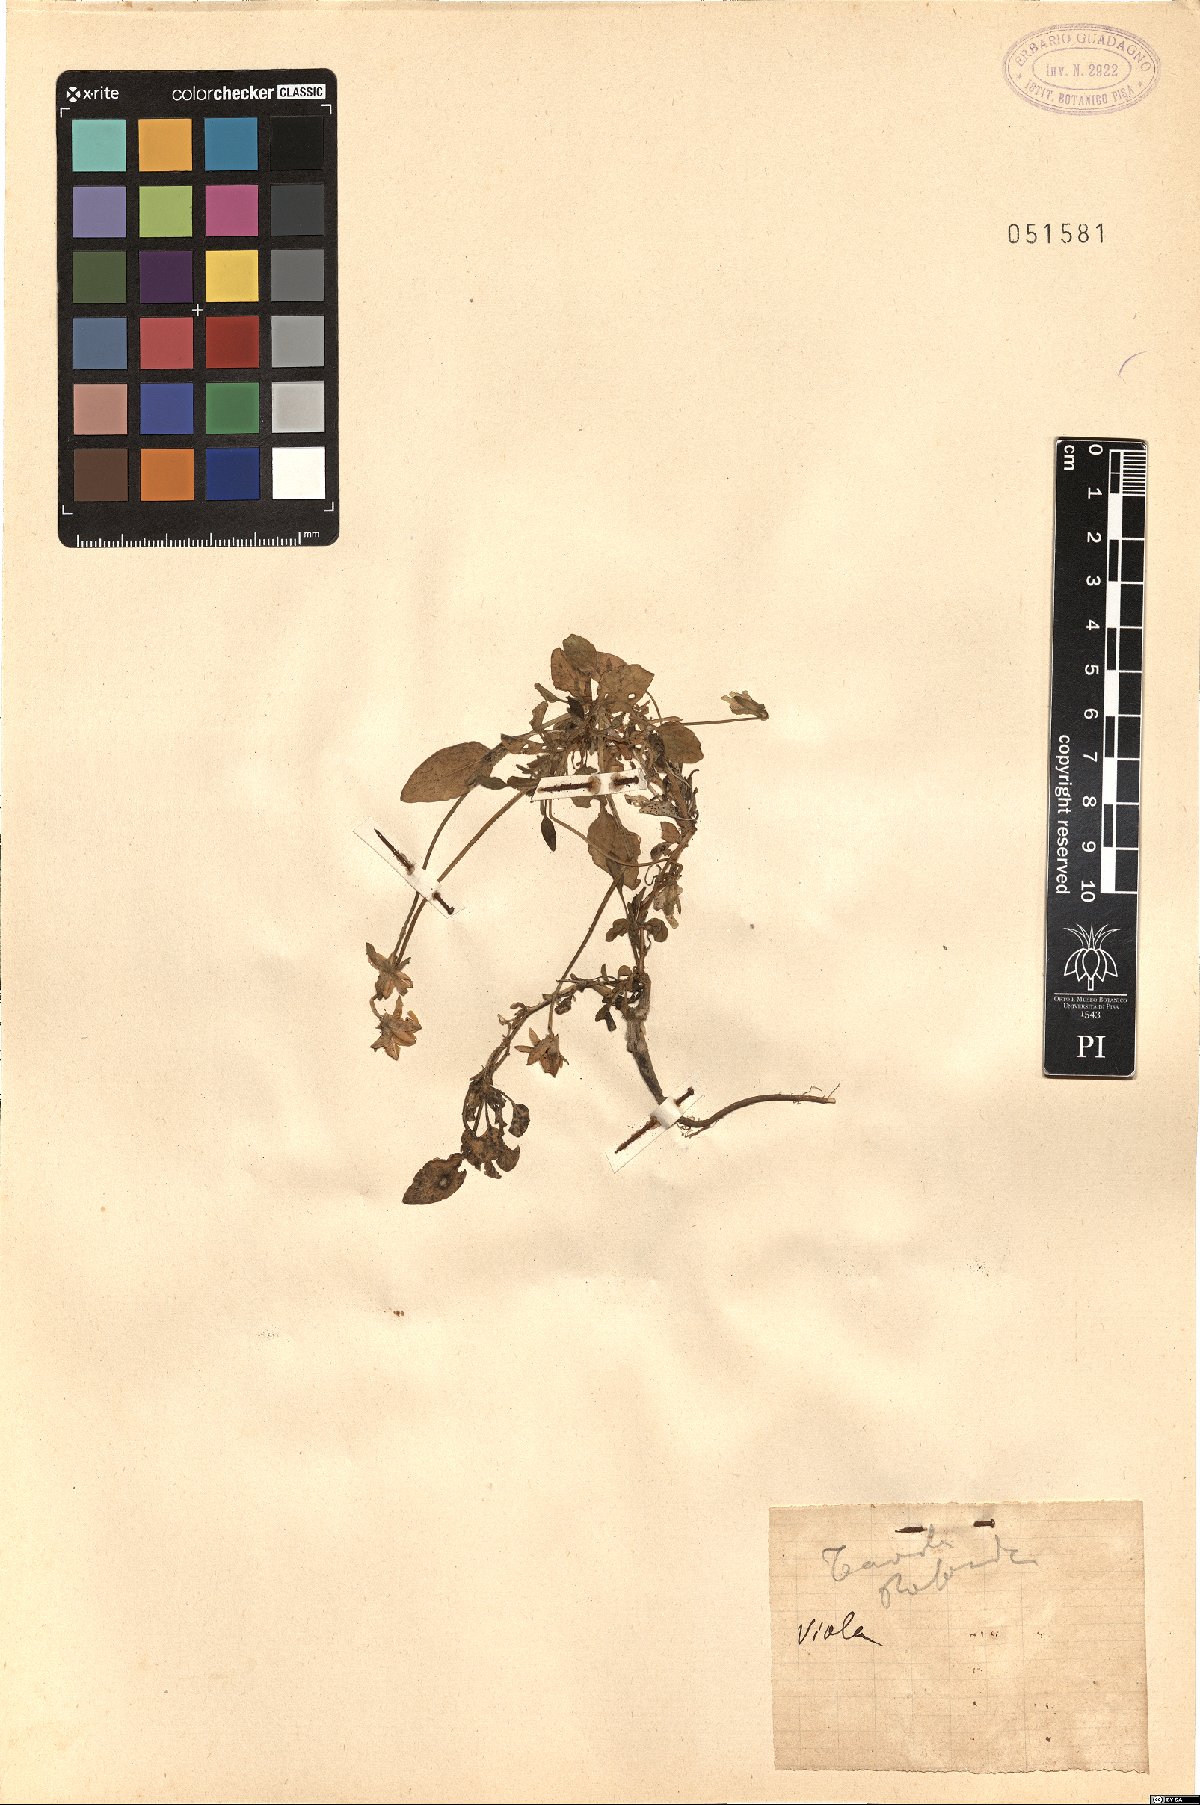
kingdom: Plantae
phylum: Tracheophyta
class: Magnoliopsida
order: Malpighiales
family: Violaceae
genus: Viola
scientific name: Viola
